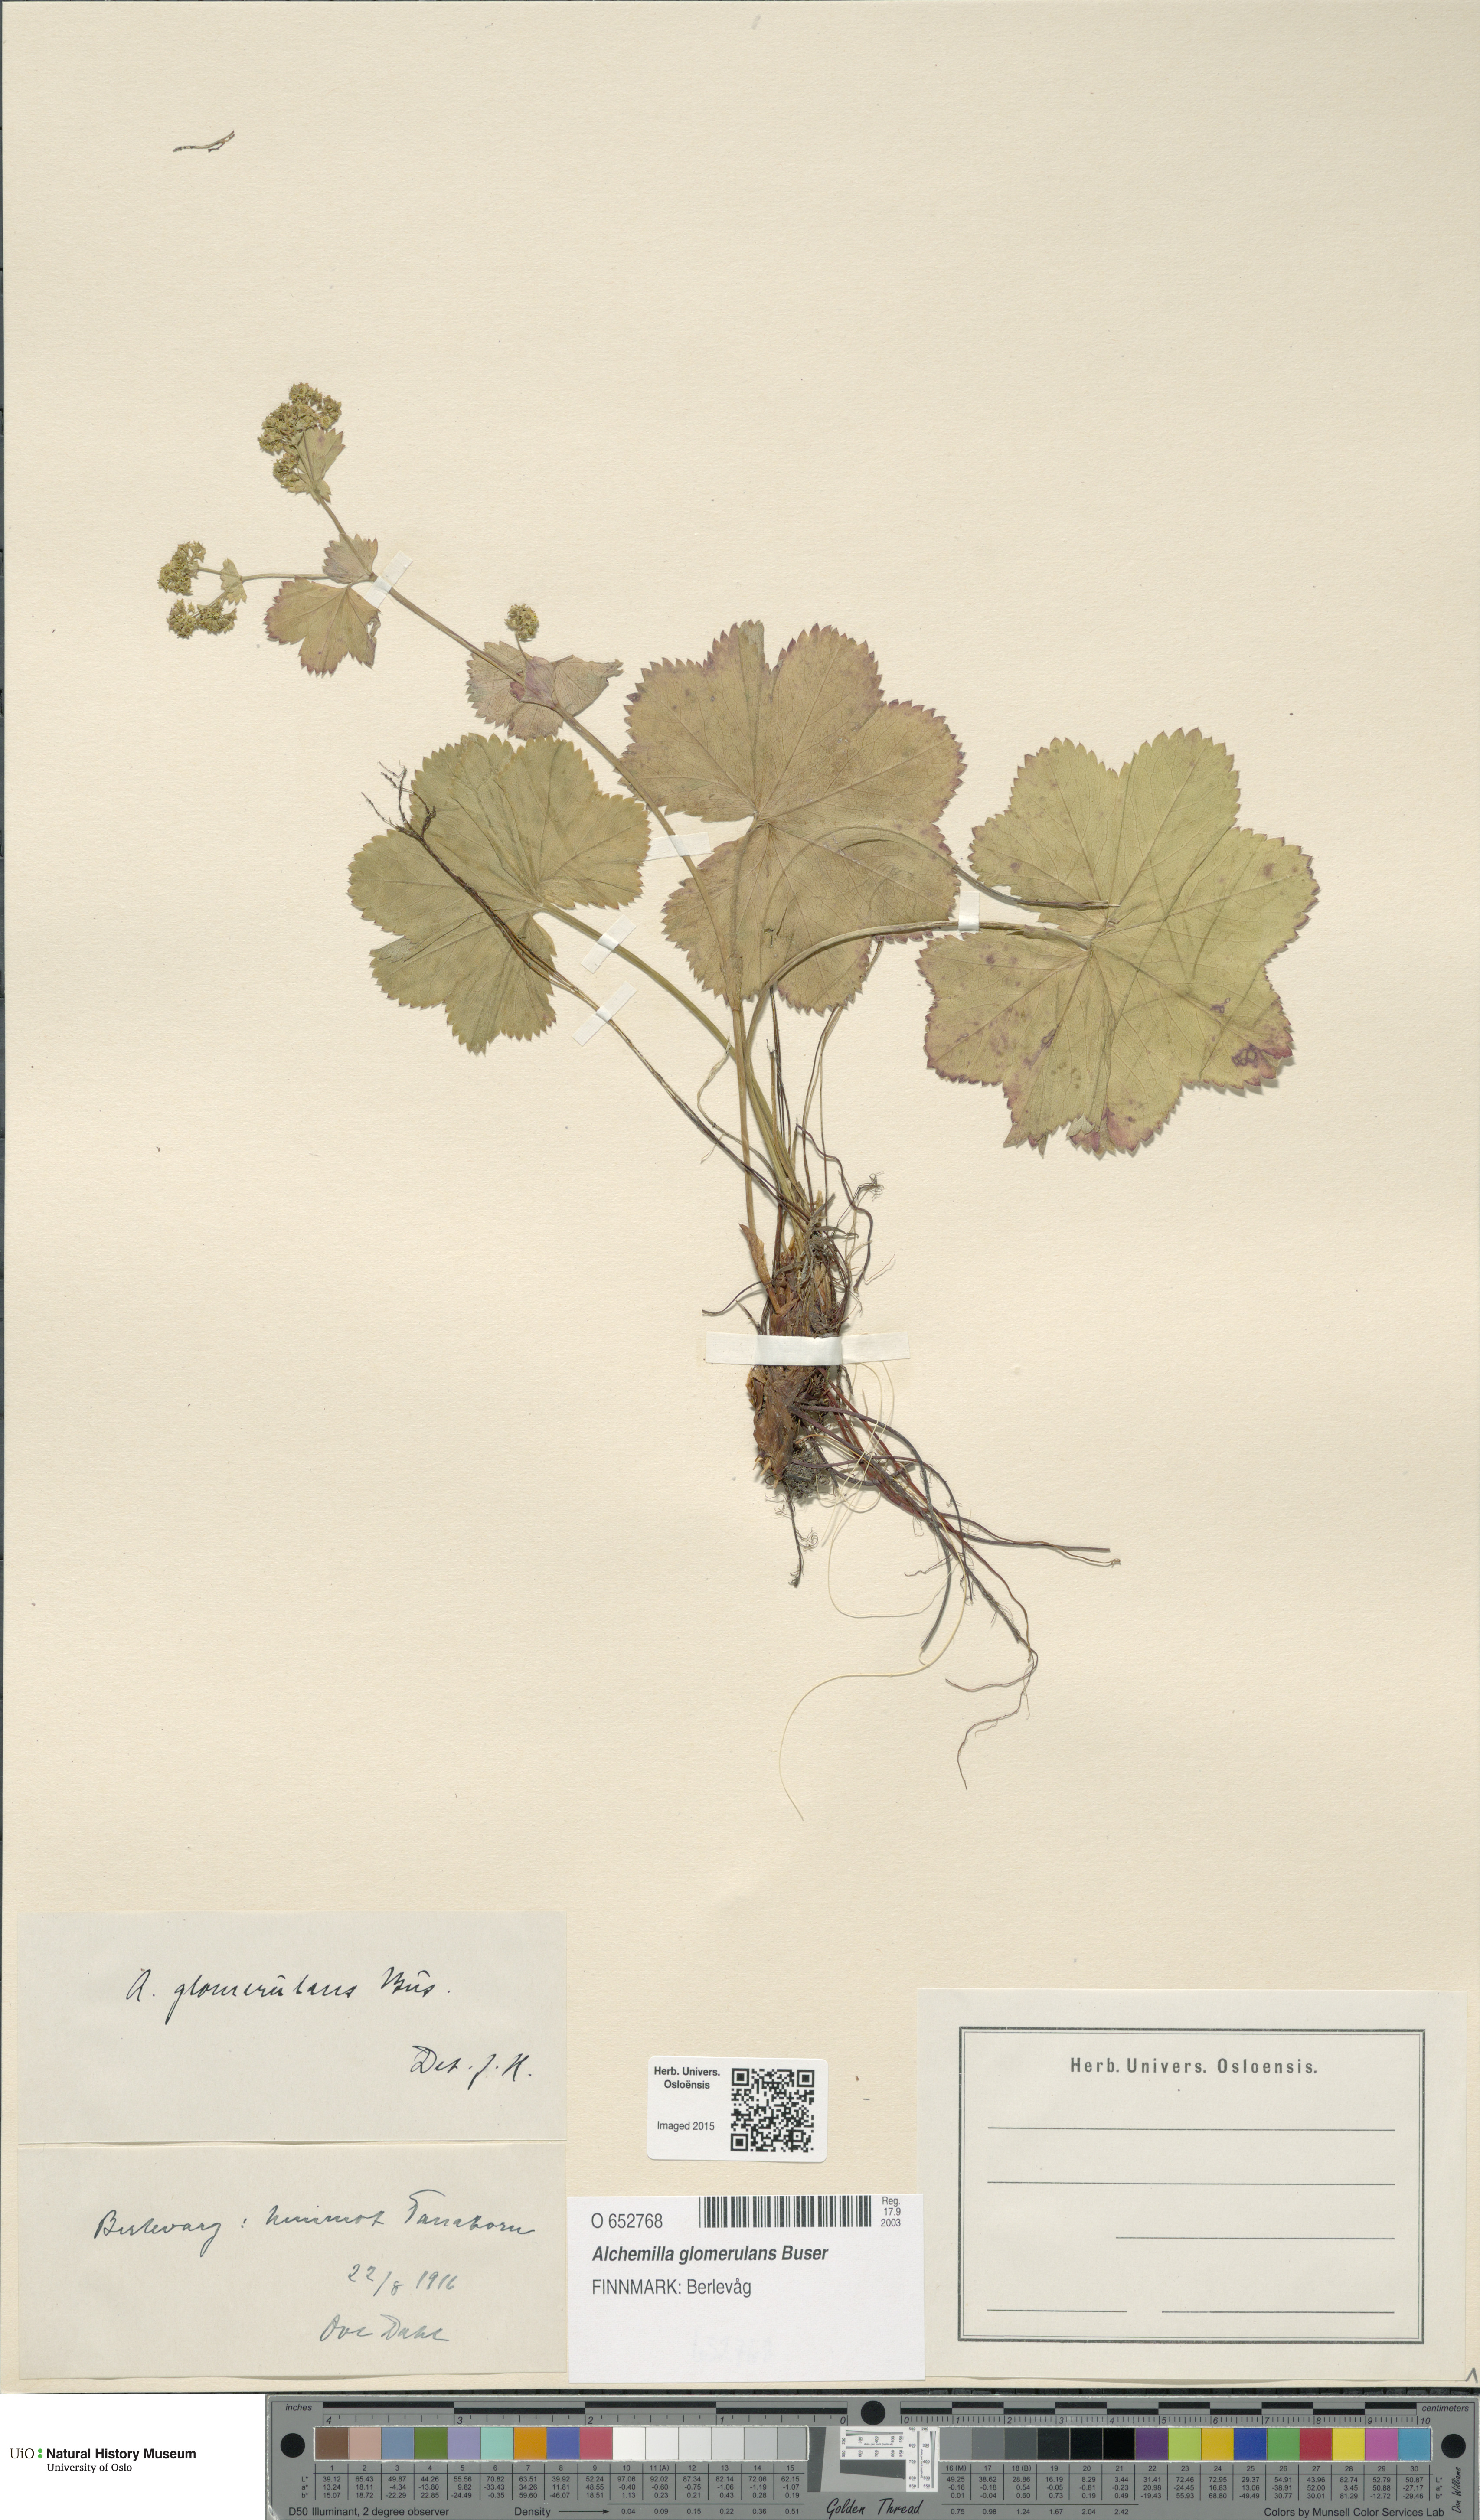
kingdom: Plantae
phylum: Tracheophyta
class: Magnoliopsida
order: Rosales
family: Rosaceae
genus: Alchemilla
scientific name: Alchemilla glomerulans
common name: Clustered lady's mantle
